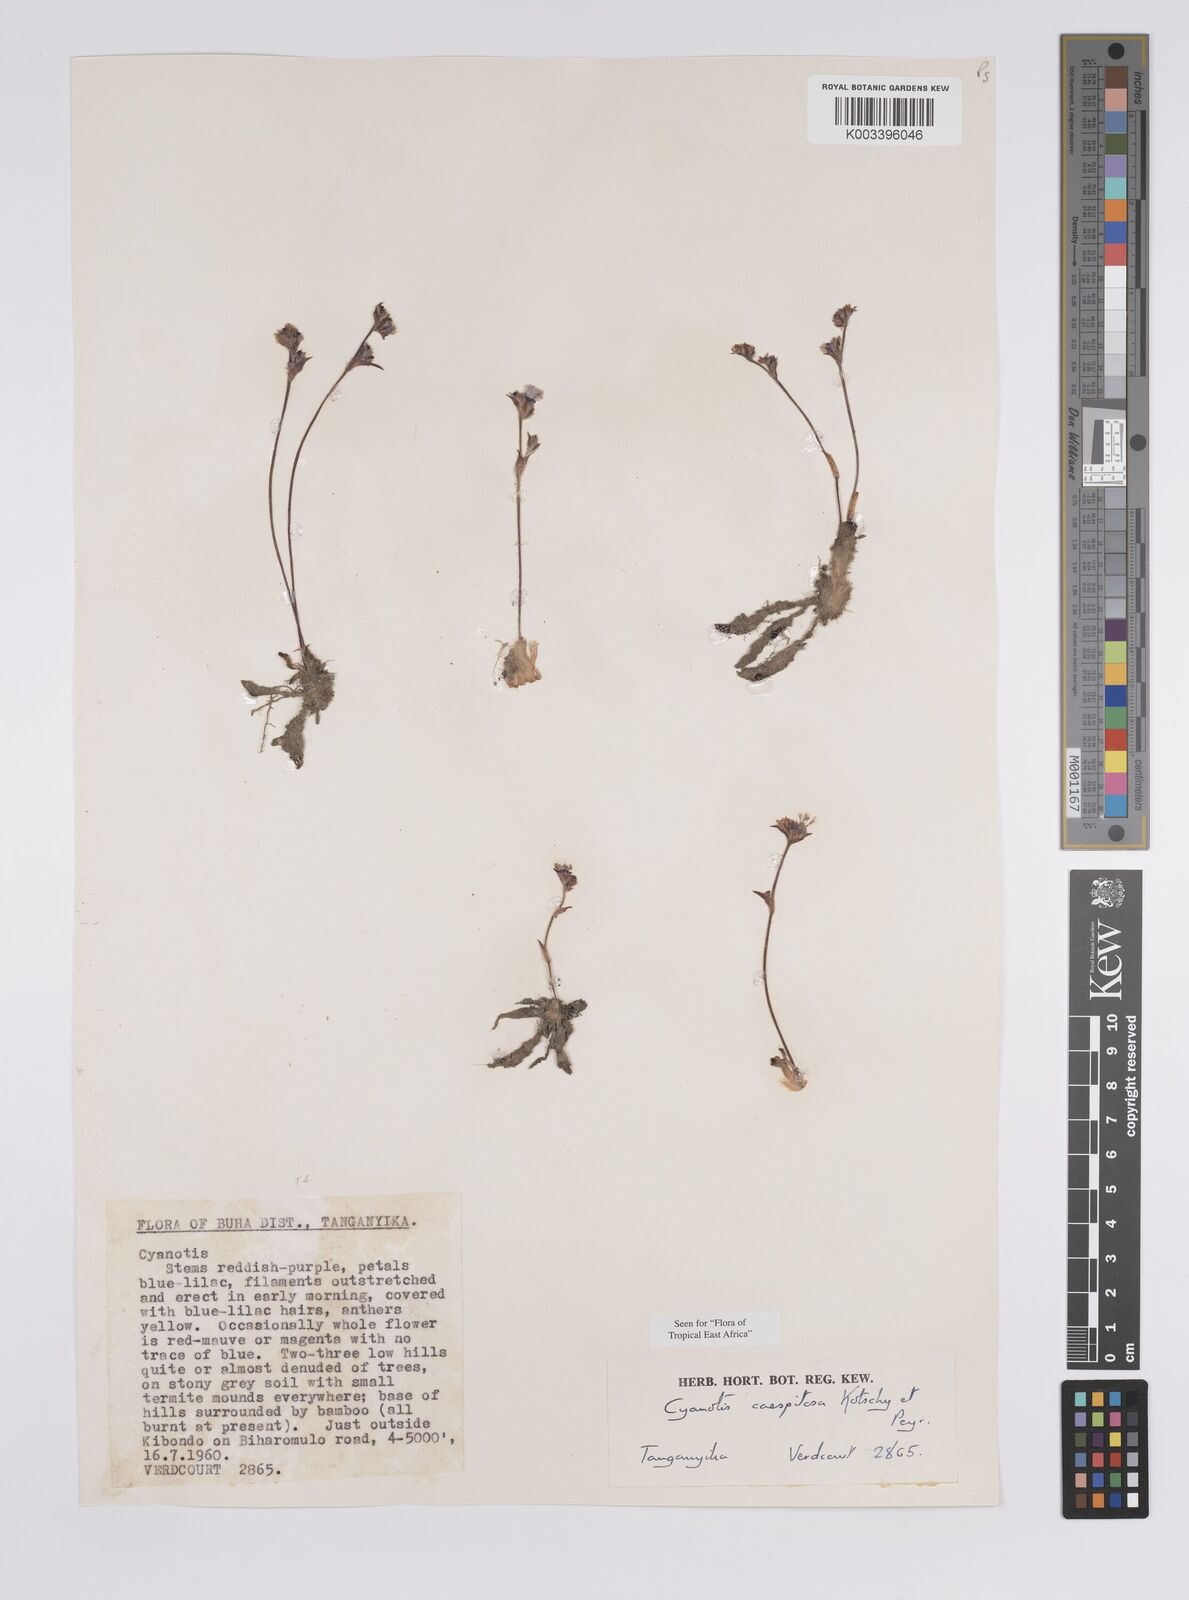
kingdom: Plantae
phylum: Tracheophyta
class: Liliopsida
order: Commelinales
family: Commelinaceae
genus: Cyanotis
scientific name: Cyanotis caespitosa
